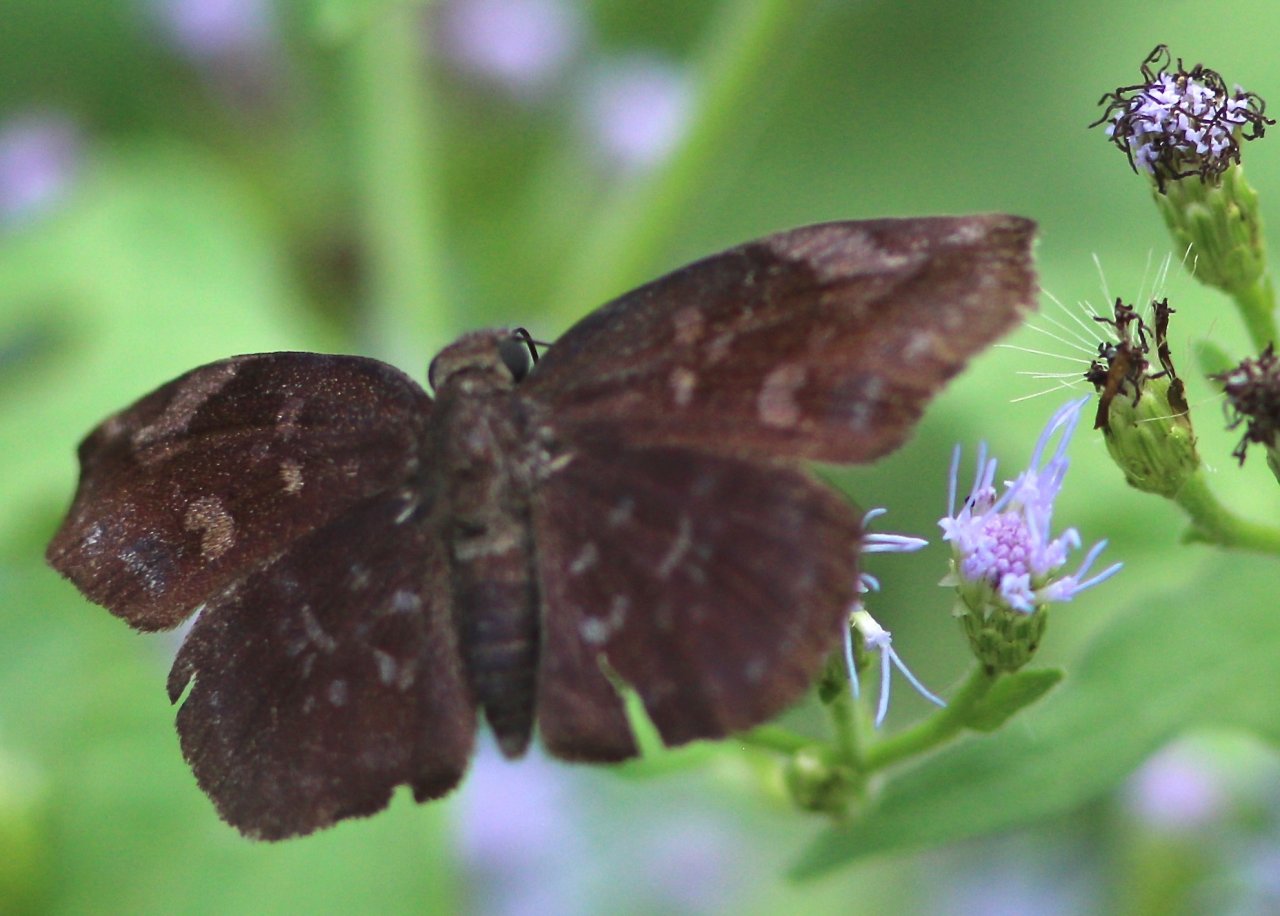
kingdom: Animalia
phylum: Arthropoda
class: Insecta
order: Lepidoptera
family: Hesperiidae
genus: Achlyodes
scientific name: Achlyodes thraso
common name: Sickle-winged Skipper
